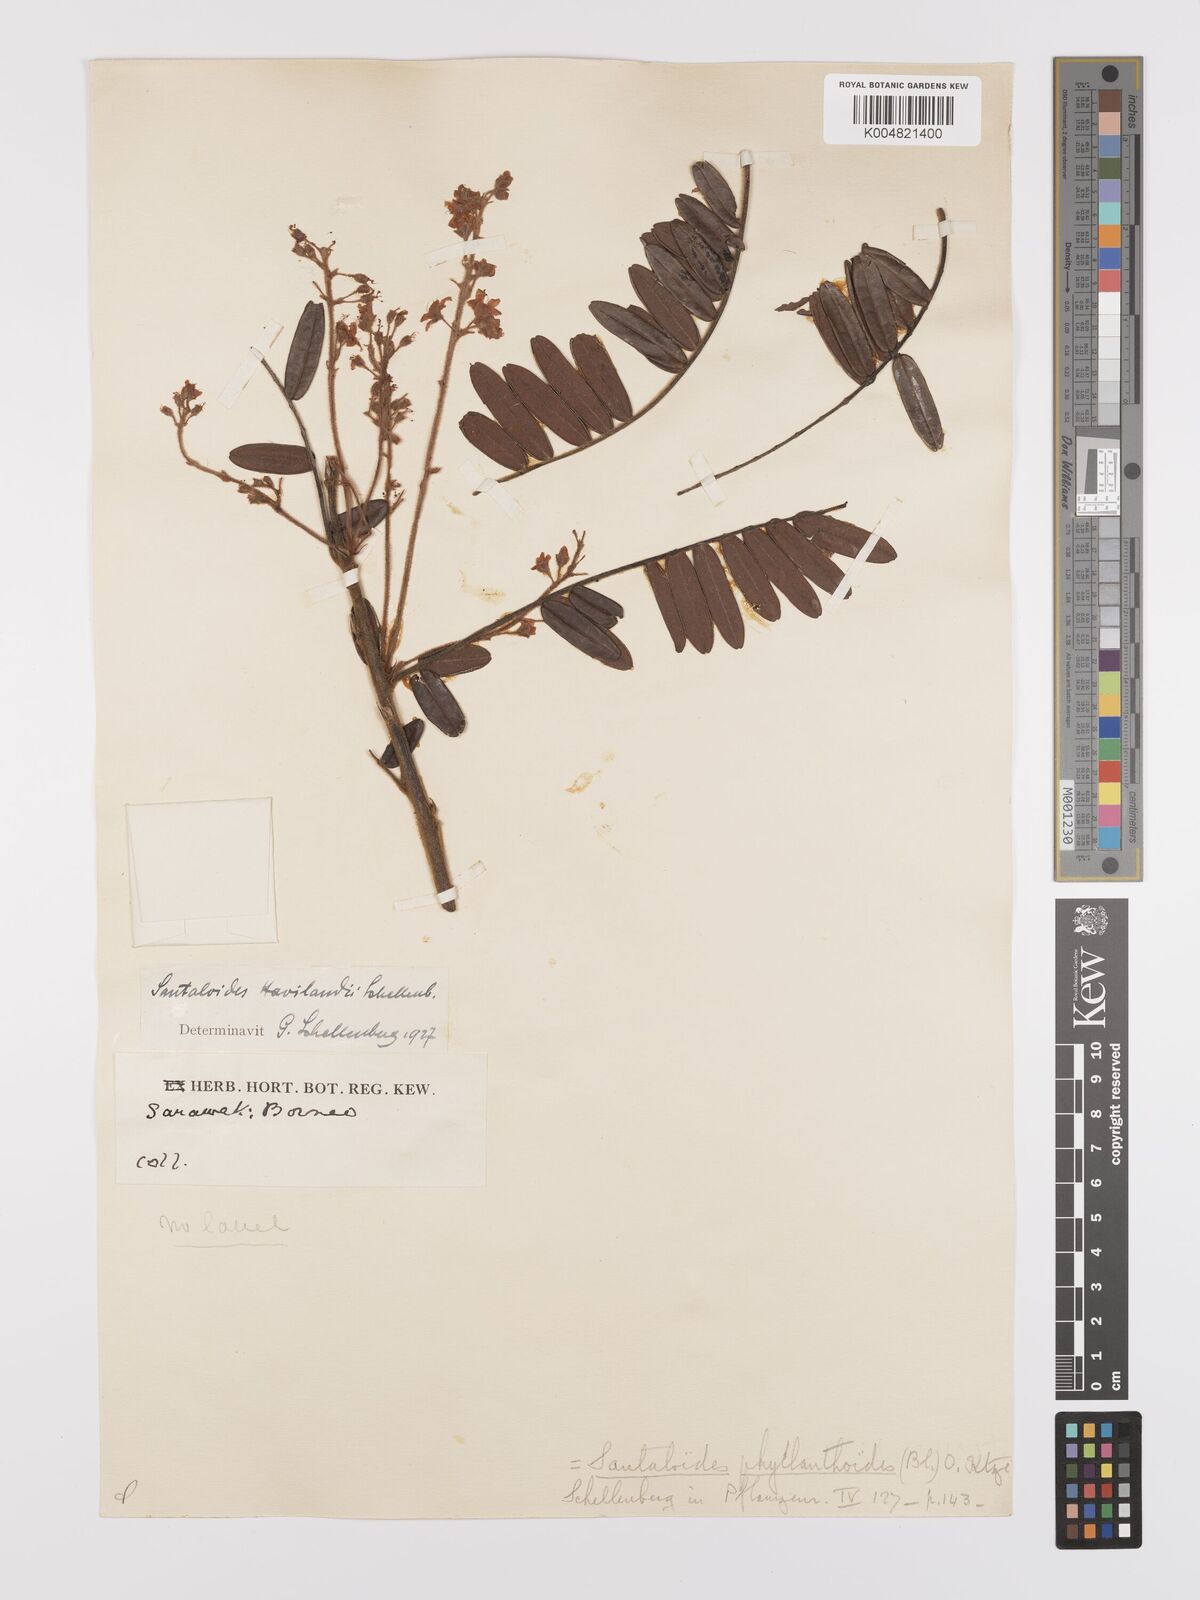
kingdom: Plantae
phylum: Tracheophyta
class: Magnoliopsida
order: Oxalidales
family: Connaraceae
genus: Rourea
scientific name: Rourea mimosoides
